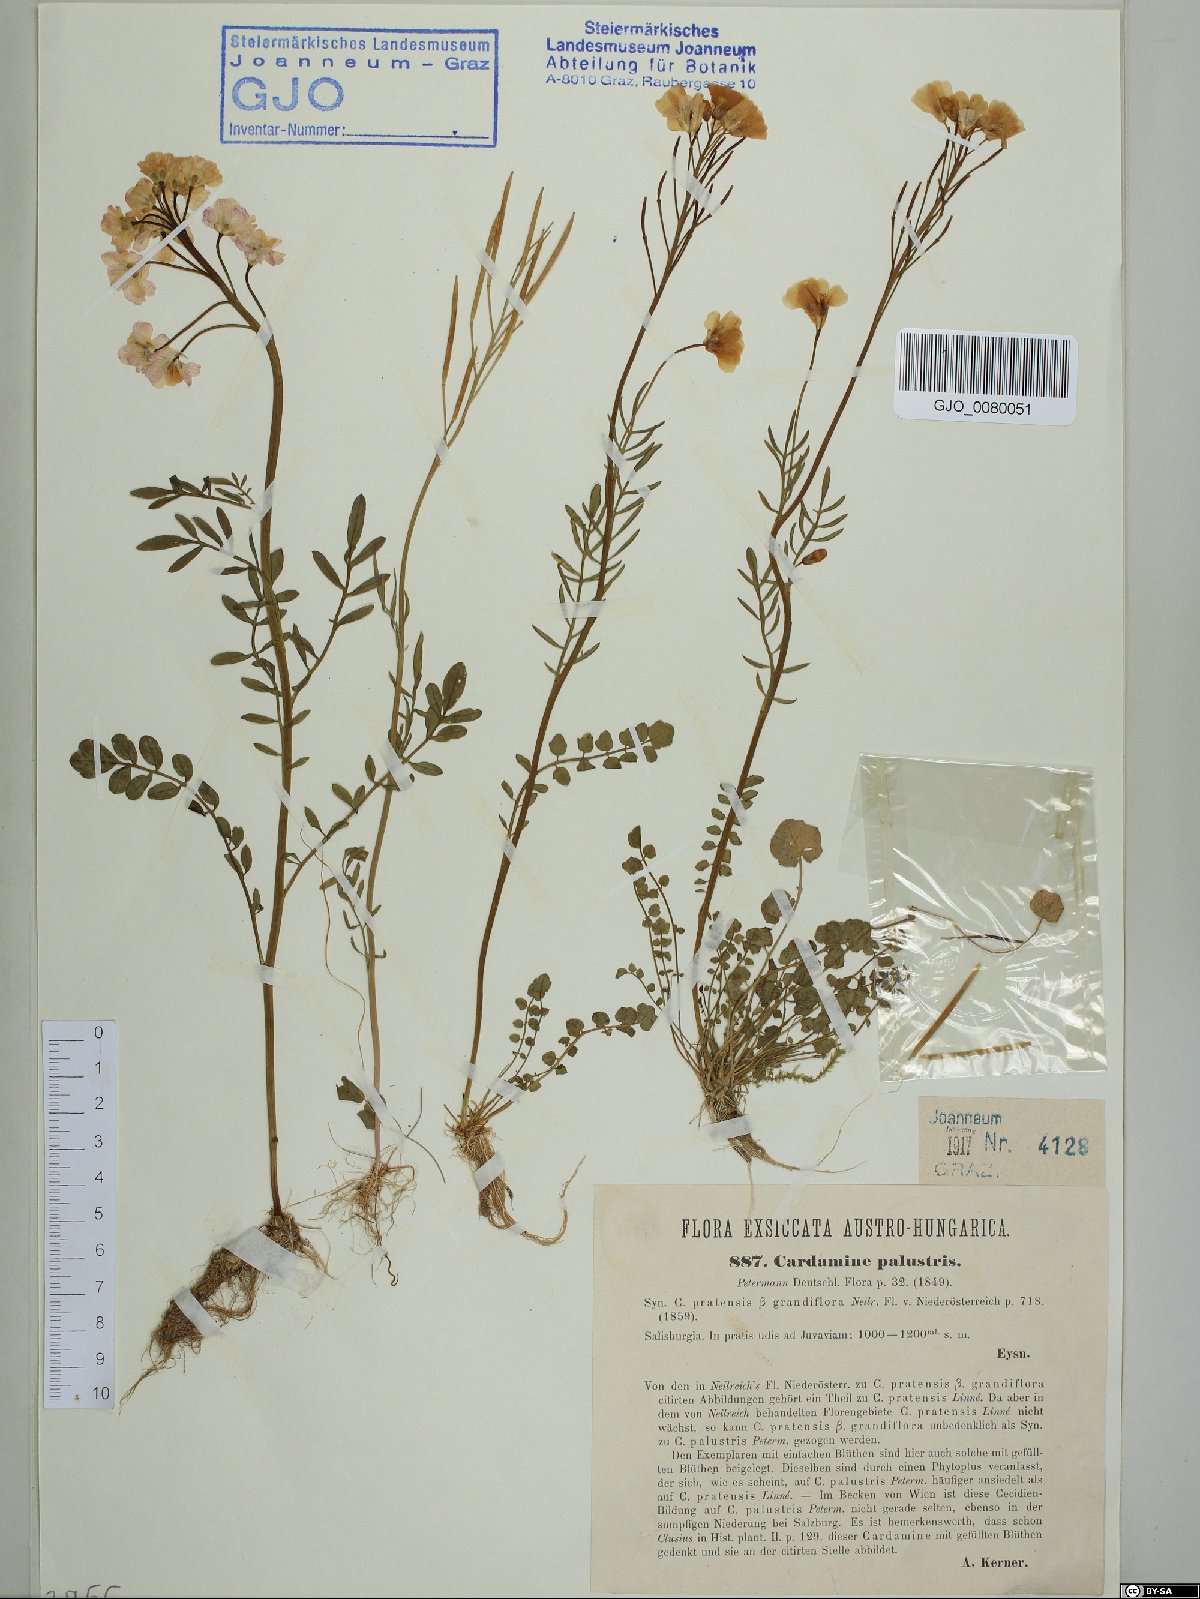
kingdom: Plantae
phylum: Tracheophyta
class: Magnoliopsida
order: Brassicales
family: Brassicaceae
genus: Cardamine
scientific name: Cardamine pratensis
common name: Cuckoo flower
